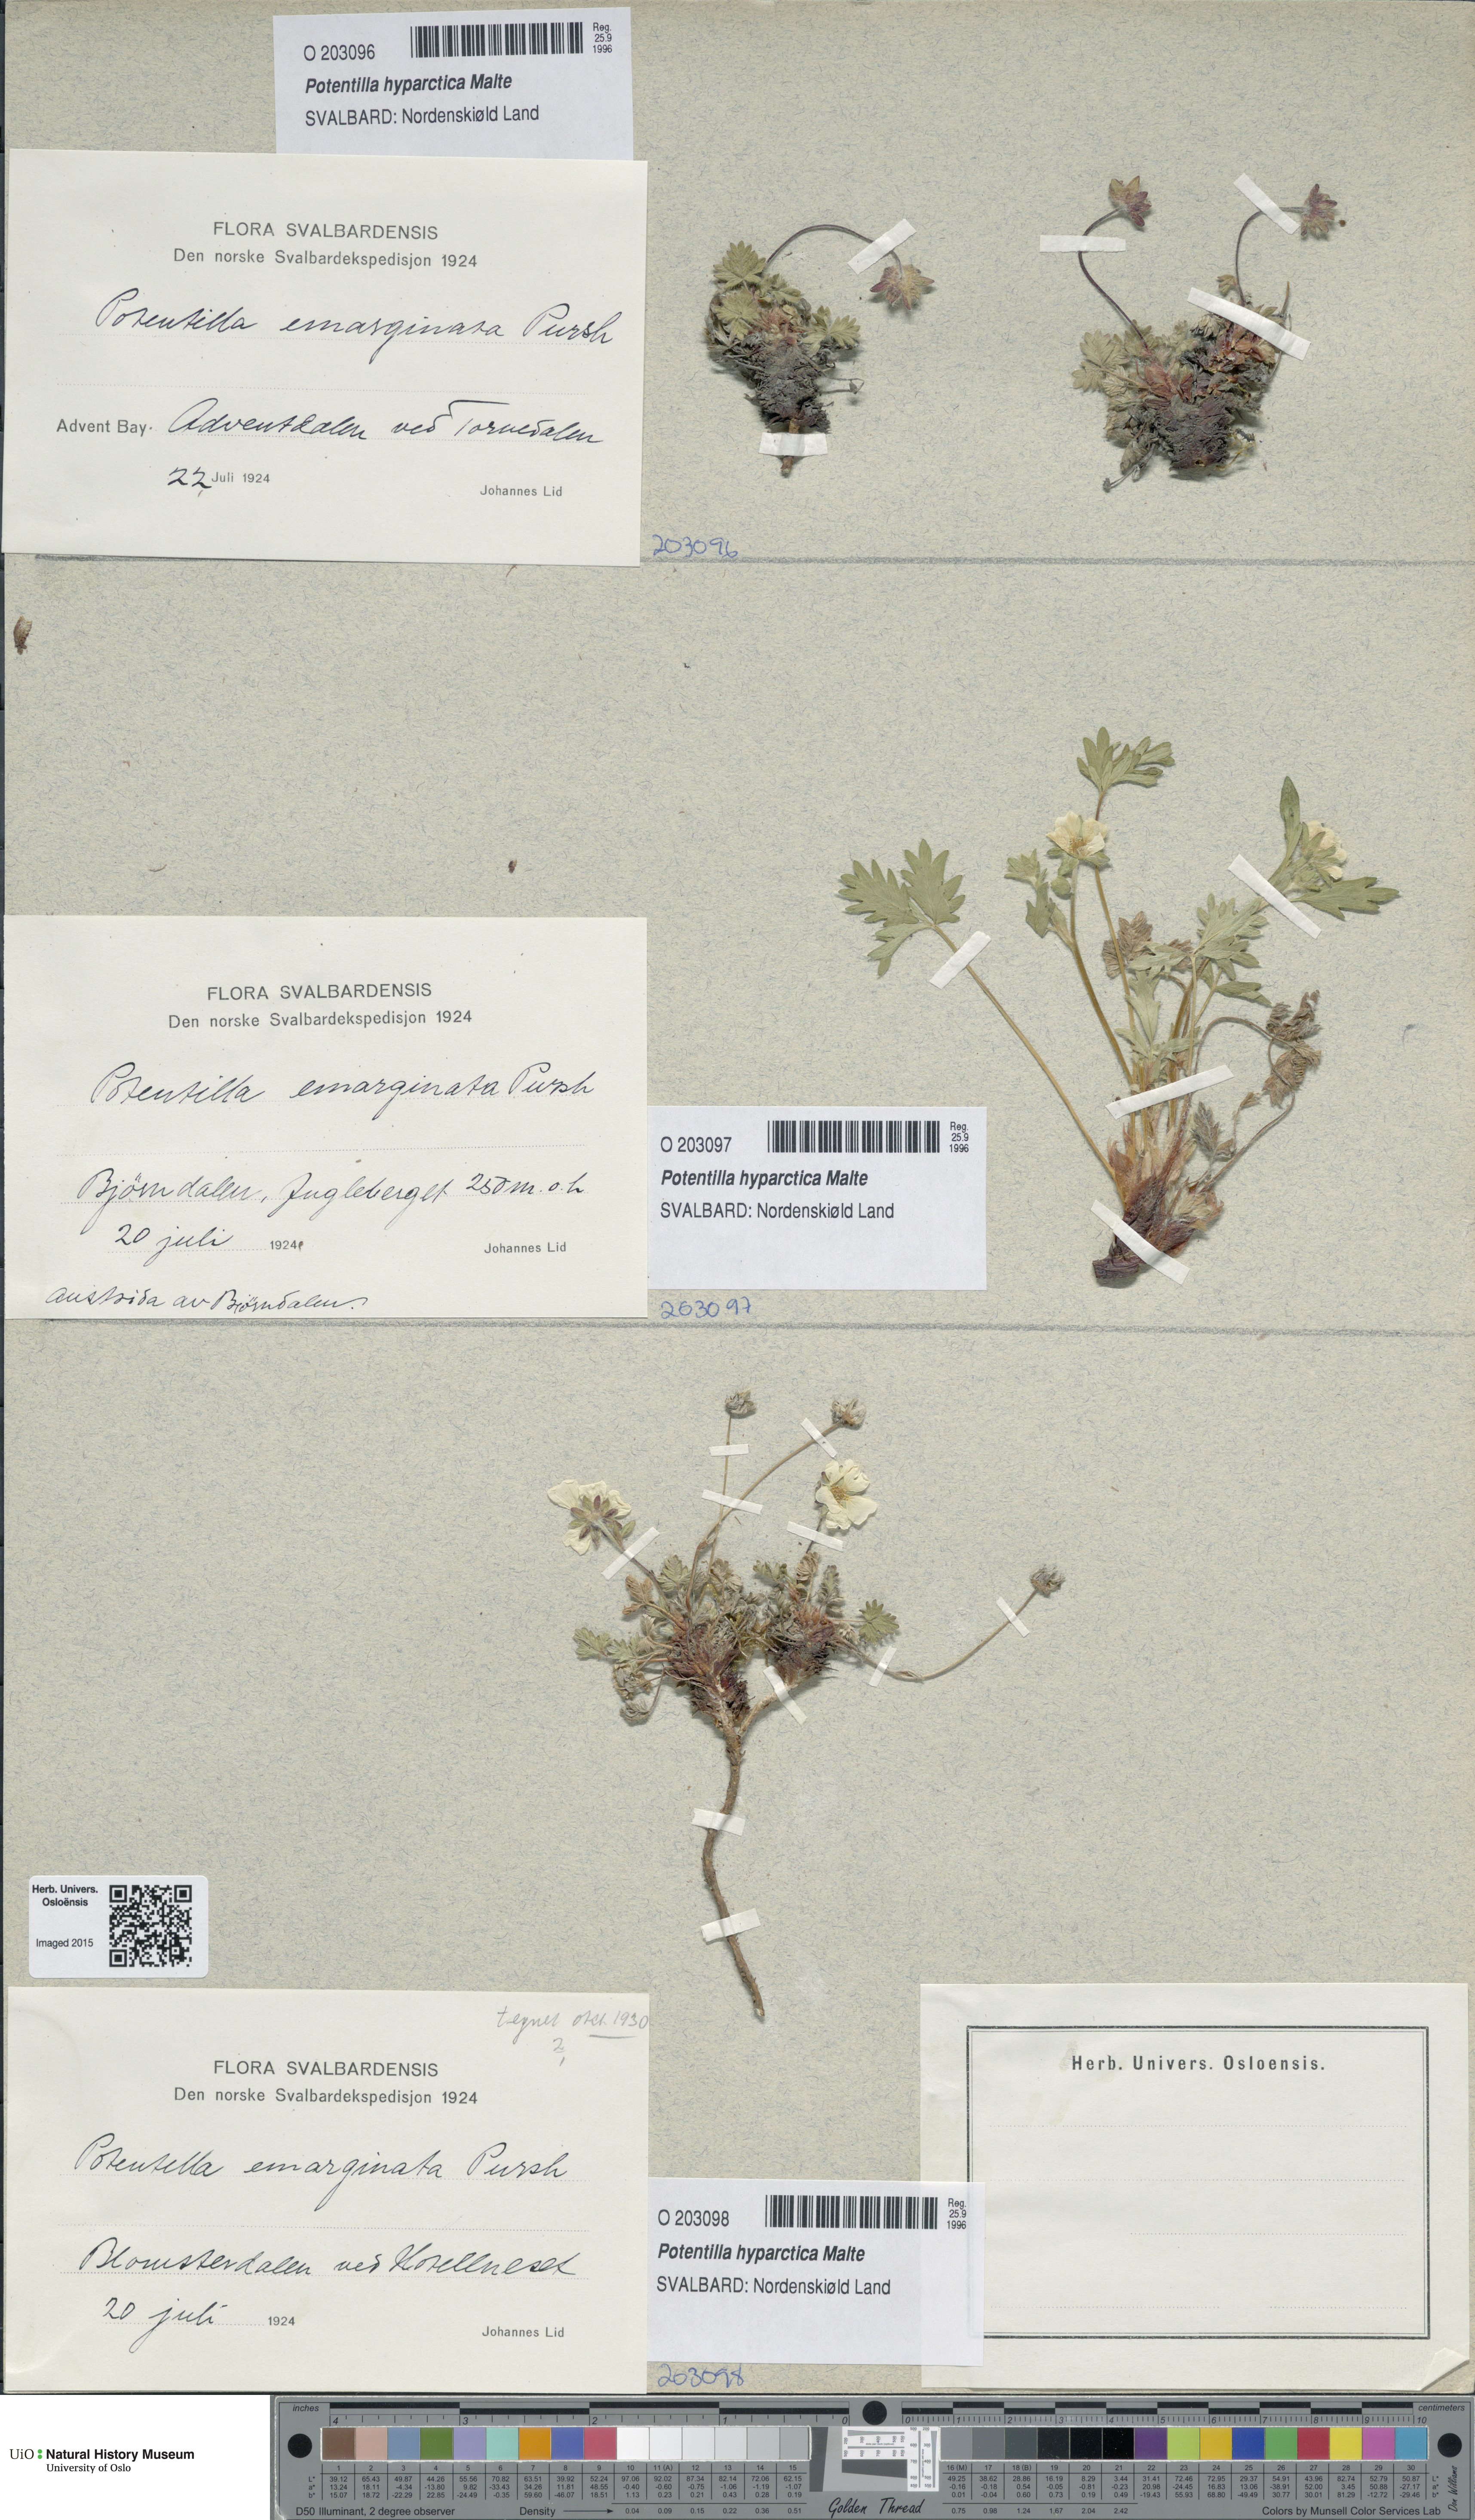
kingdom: Plantae
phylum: Tracheophyta
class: Magnoliopsida
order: Rosales
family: Rosaceae
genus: Potentilla
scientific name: Potentilla hyparctica
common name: Arctic cinquefoil
